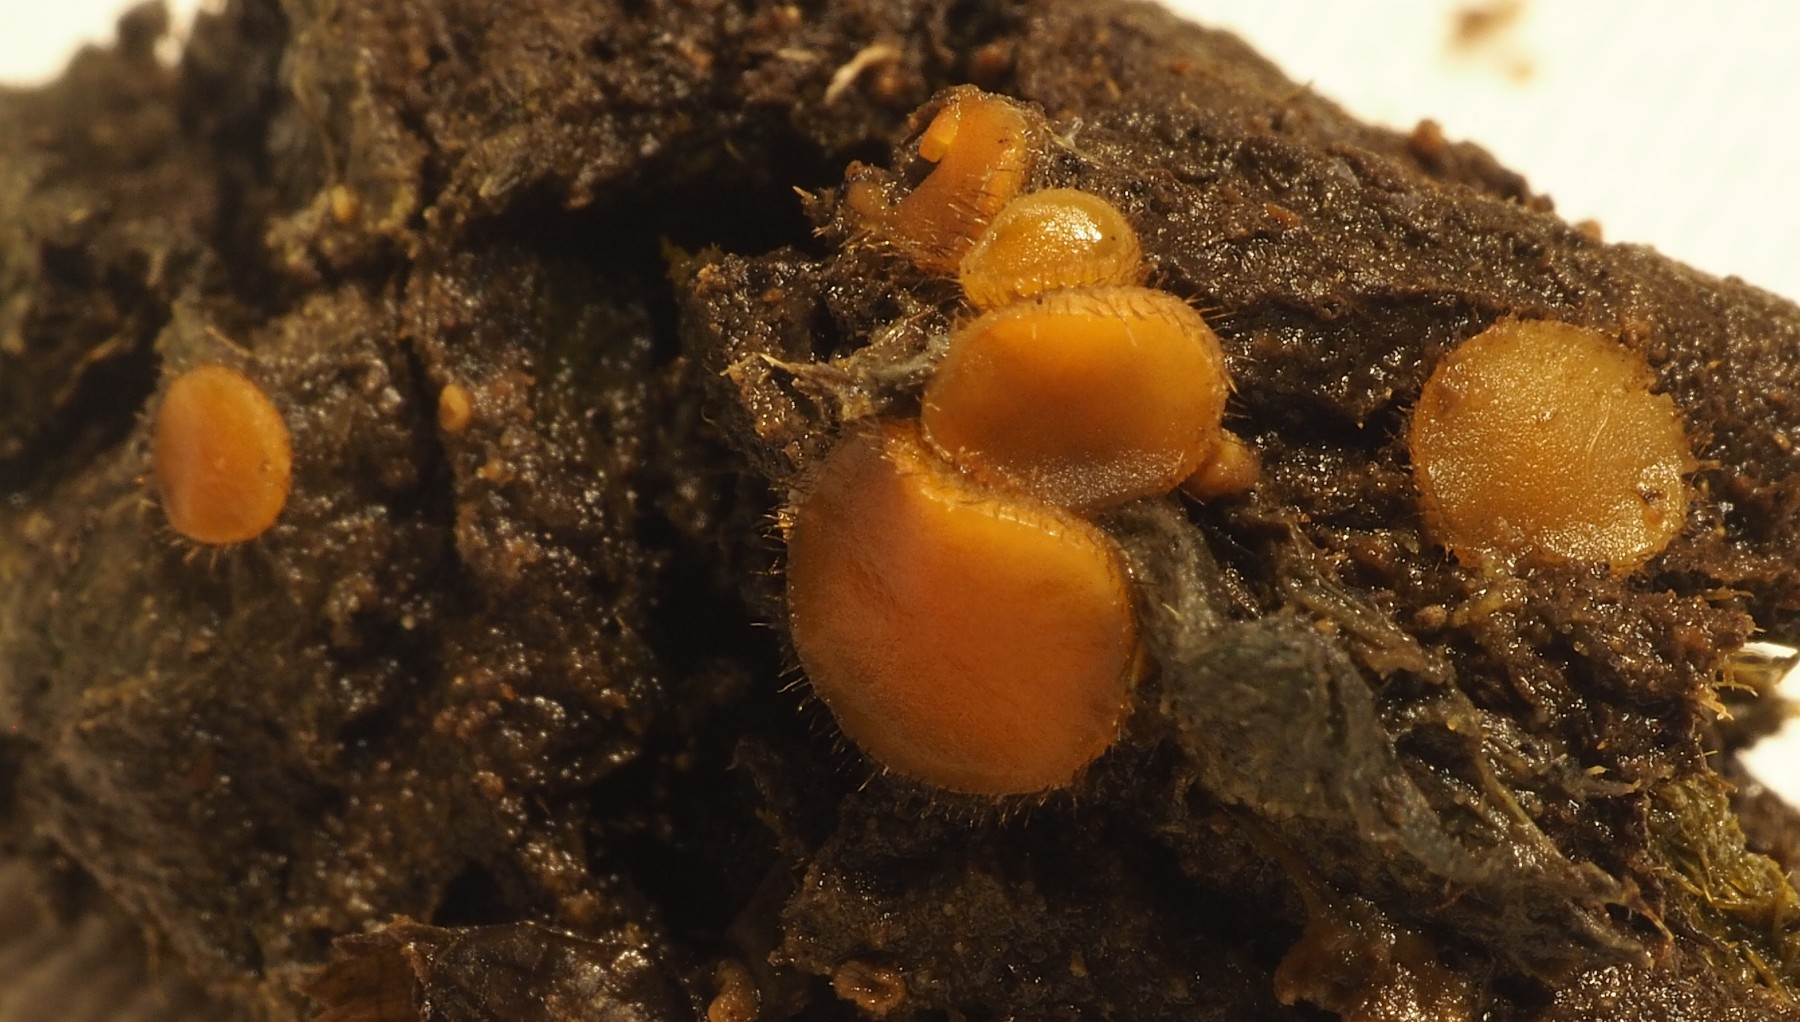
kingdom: Fungi
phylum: Ascomycota
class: Pezizomycetes
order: Pezizales
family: Pyronemataceae
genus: Cheilymenia
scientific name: Cheilymenia stercorea
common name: gødnings-hårbæger
